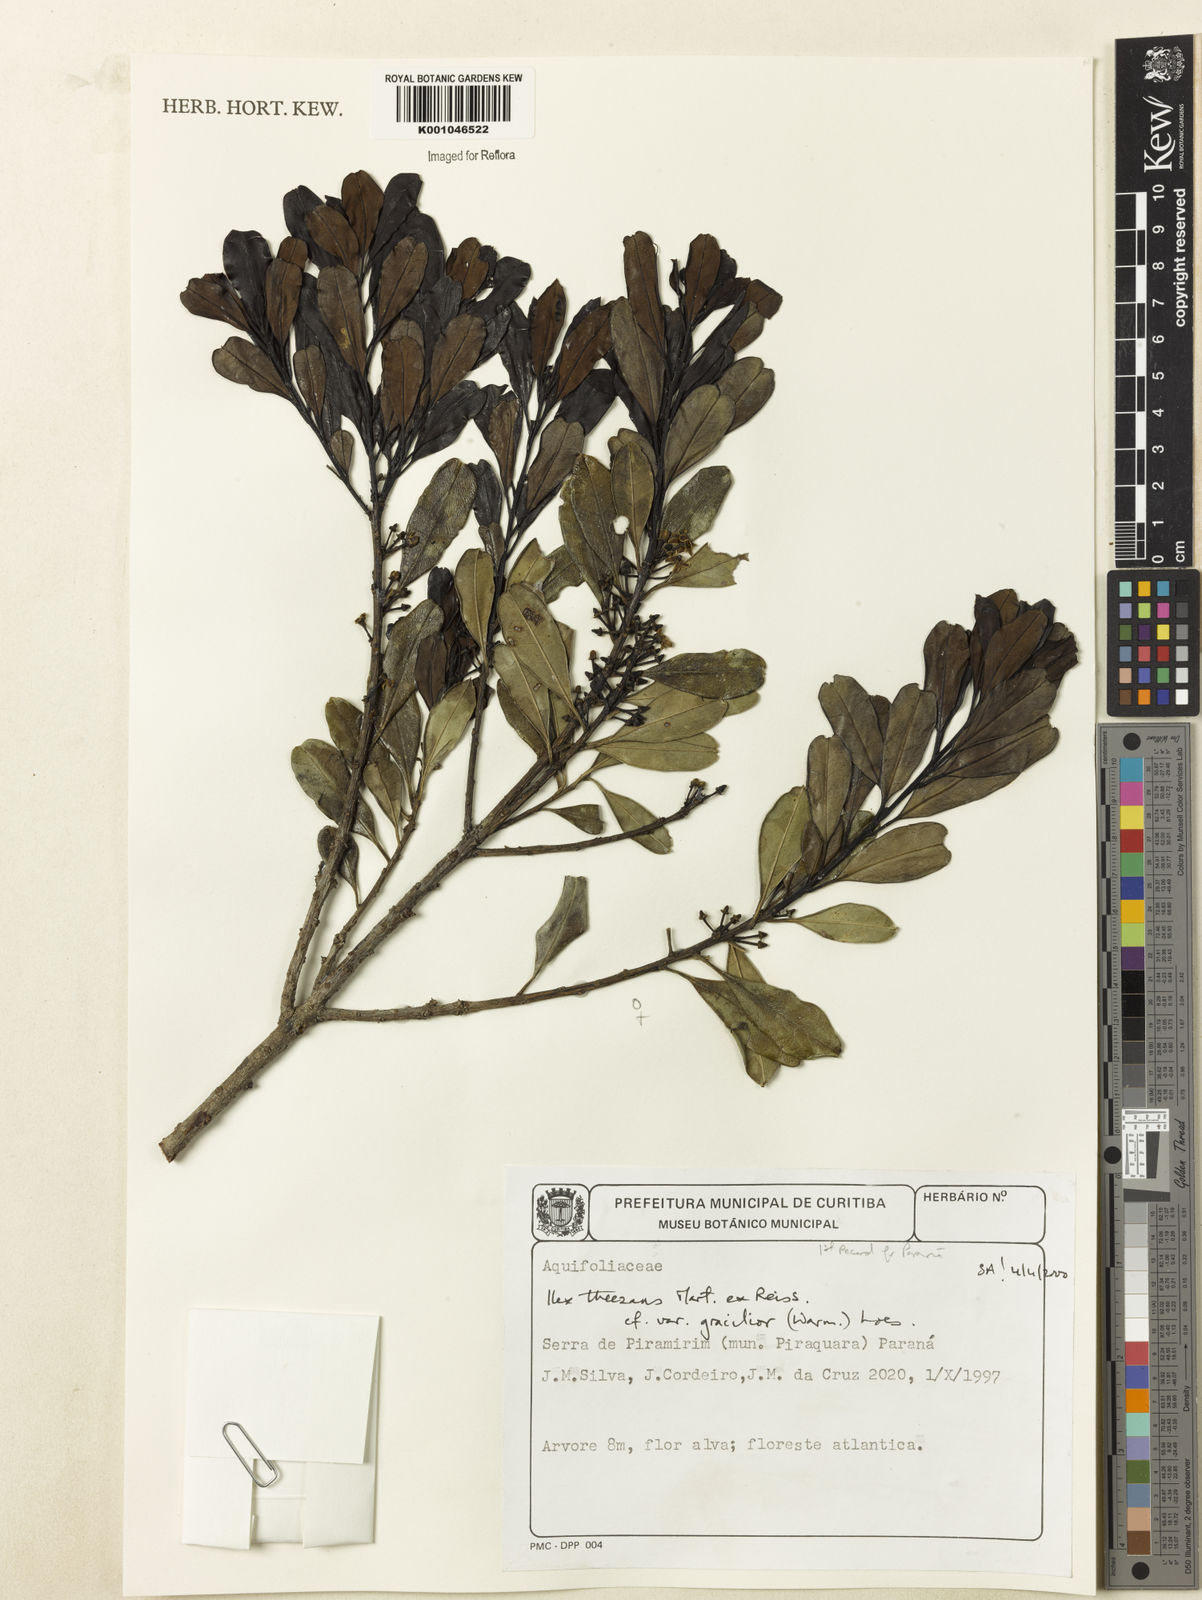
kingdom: Plantae
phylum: Tracheophyta
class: Magnoliopsida
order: Aquifoliales
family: Aquifoliaceae
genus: Ilex
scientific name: Ilex gracilior
